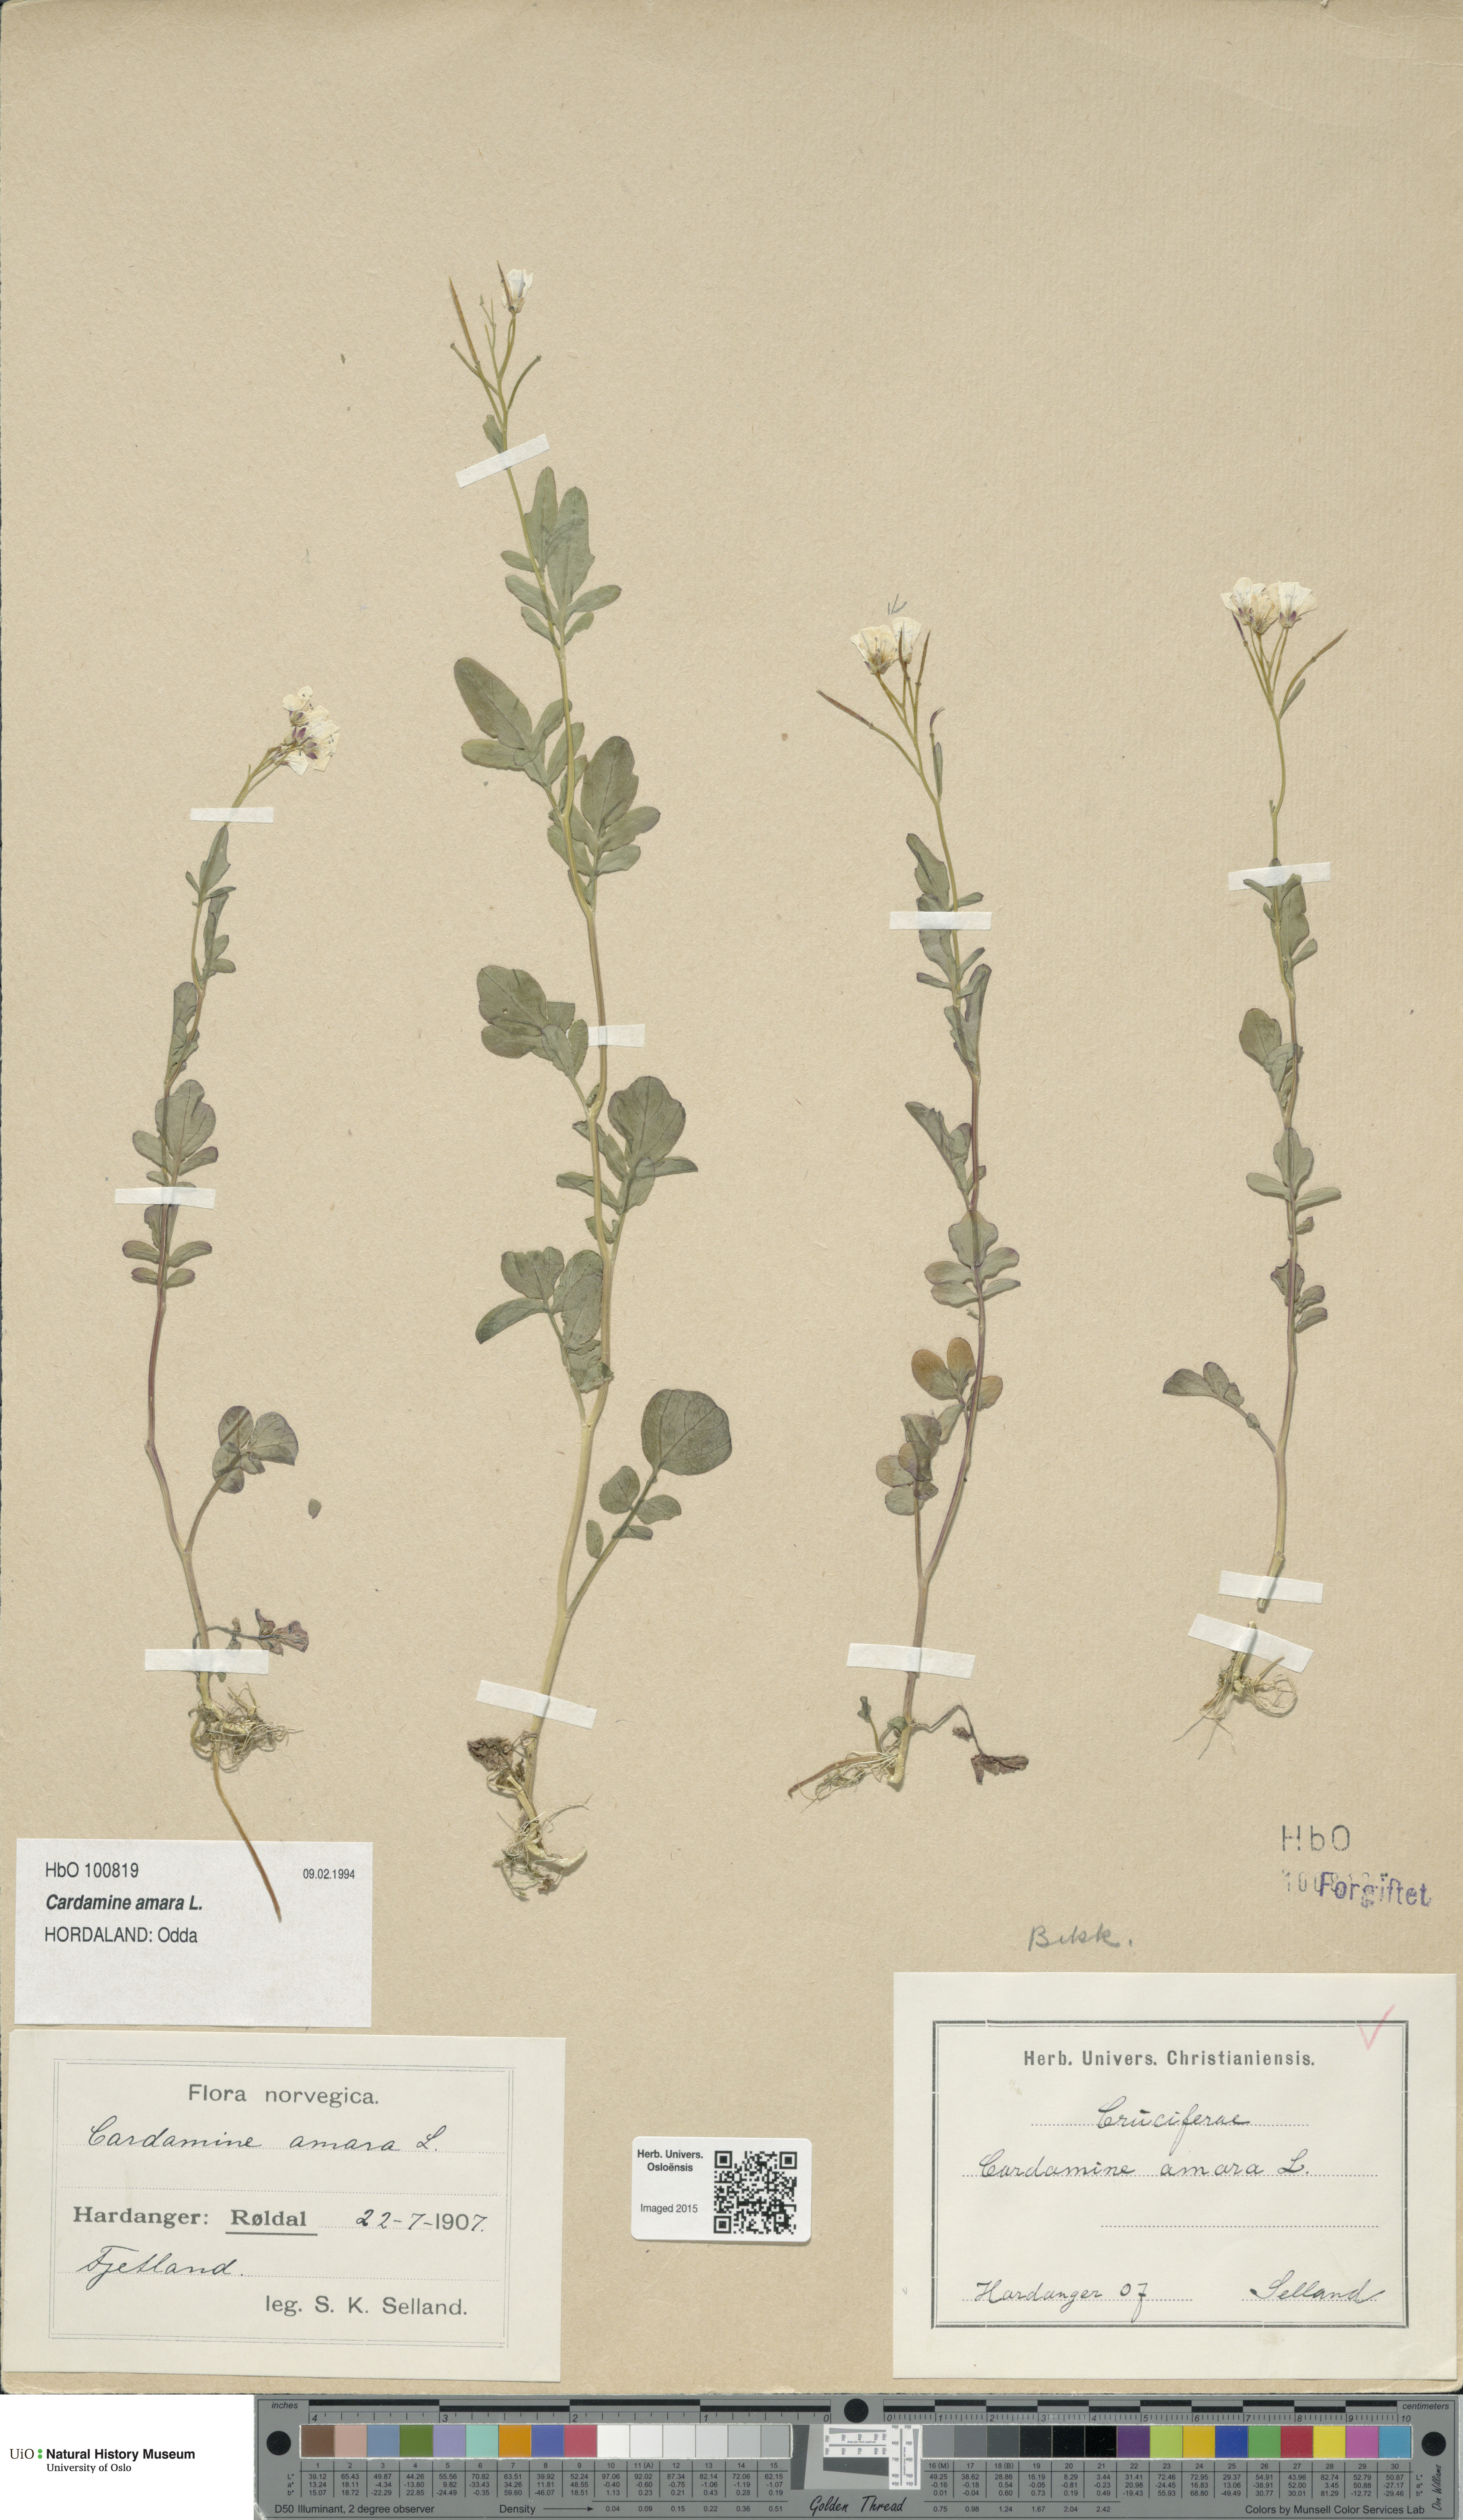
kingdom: Plantae
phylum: Tracheophyta
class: Magnoliopsida
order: Brassicales
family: Brassicaceae
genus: Cardamine
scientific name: Cardamine amara
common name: Large bitter-cress
